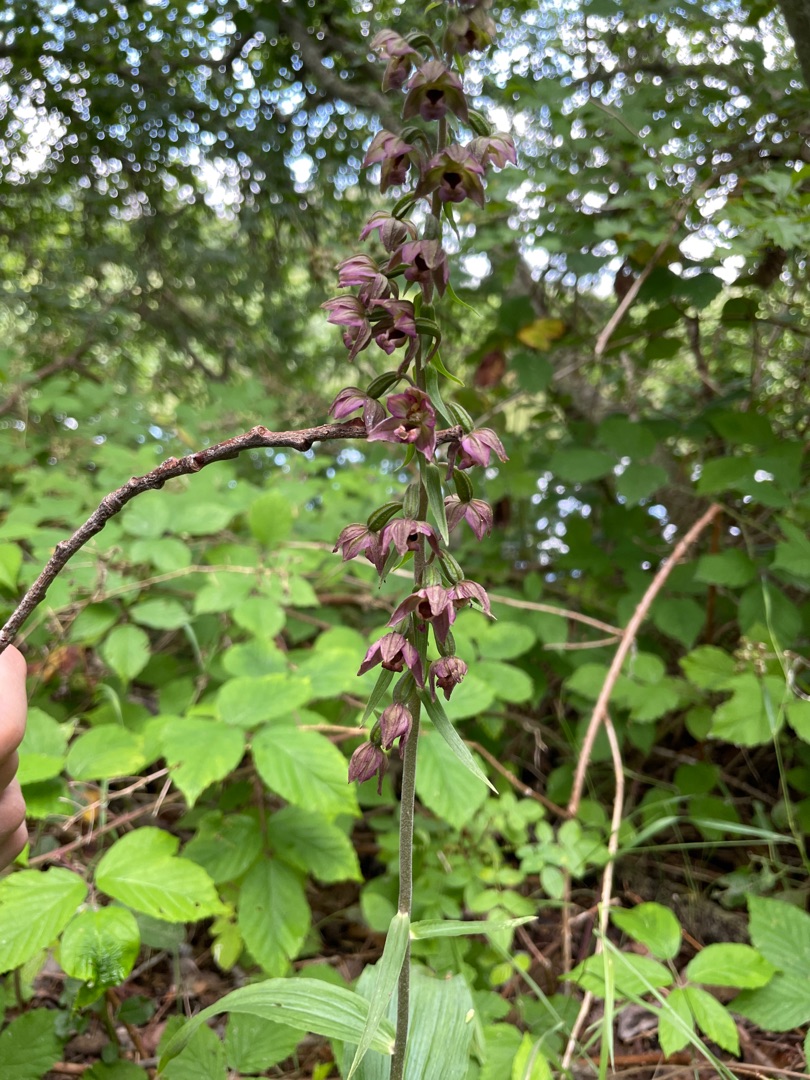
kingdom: Plantae
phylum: Tracheophyta
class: Liliopsida
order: Asparagales
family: Orchidaceae
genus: Epipactis
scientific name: Epipactis helleborine
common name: Skov-hullæbe
